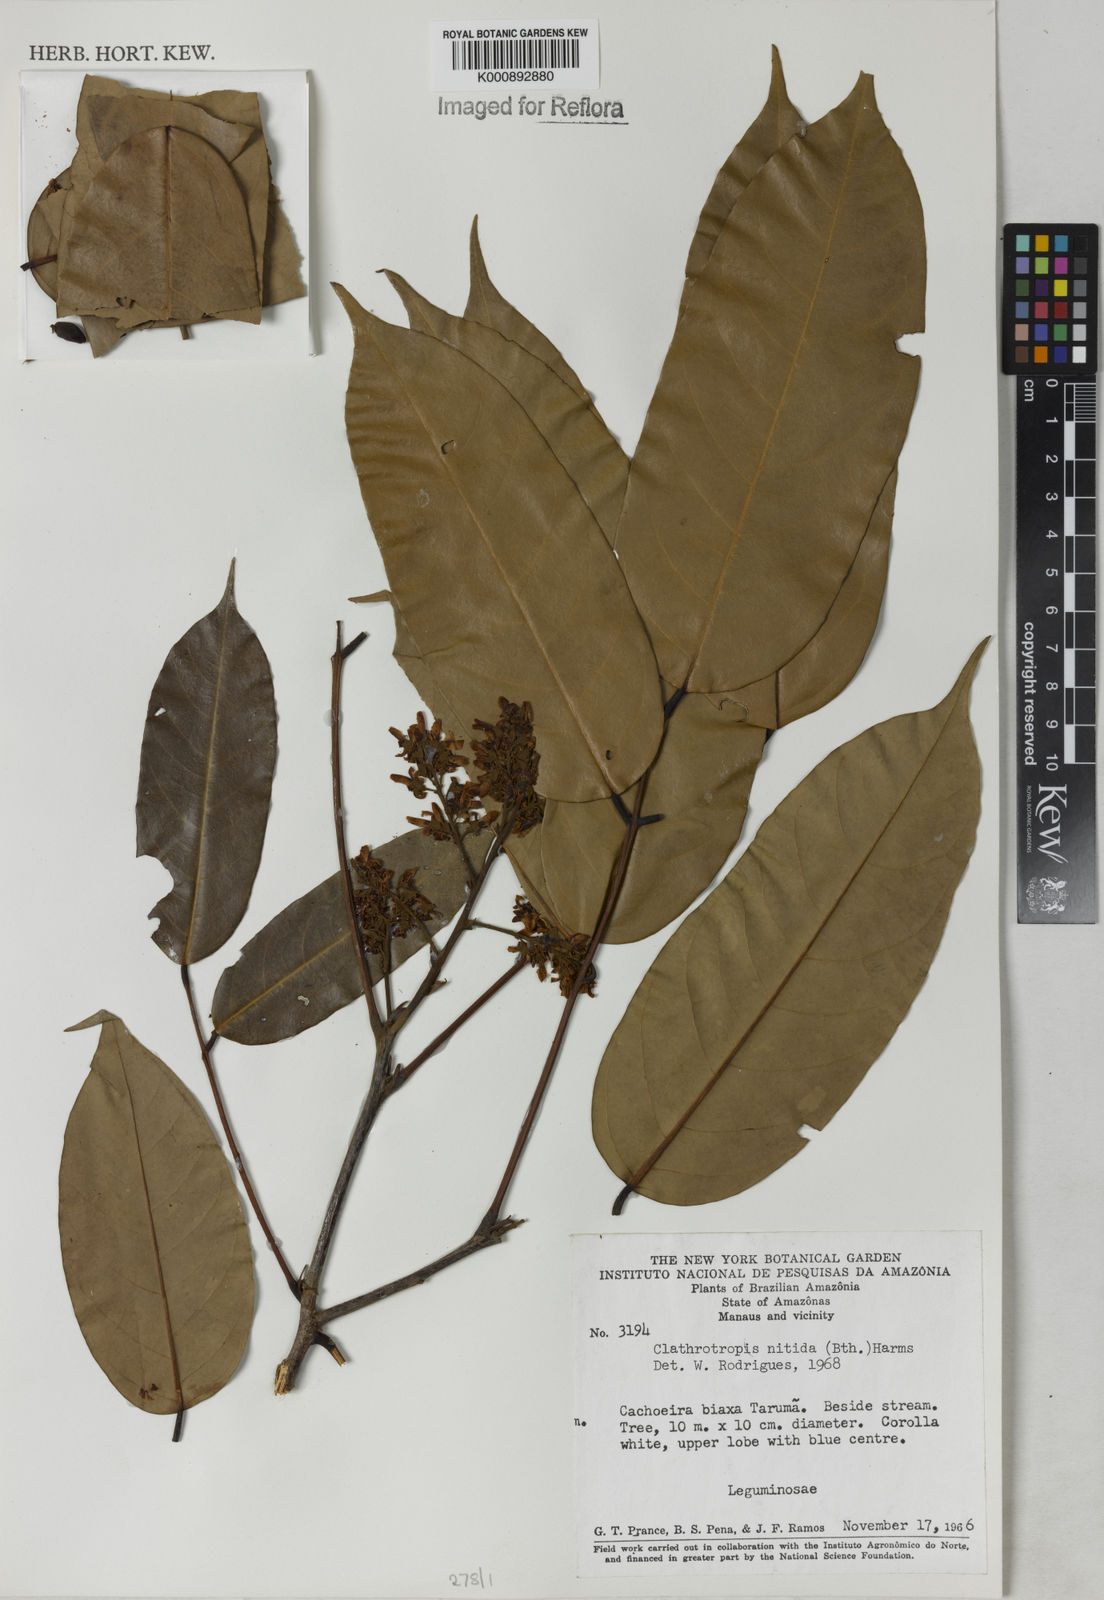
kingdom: Plantae
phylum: Tracheophyta
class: Magnoliopsida
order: Fabales
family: Fabaceae
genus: Clathrotropis
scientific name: Clathrotropis nitida
